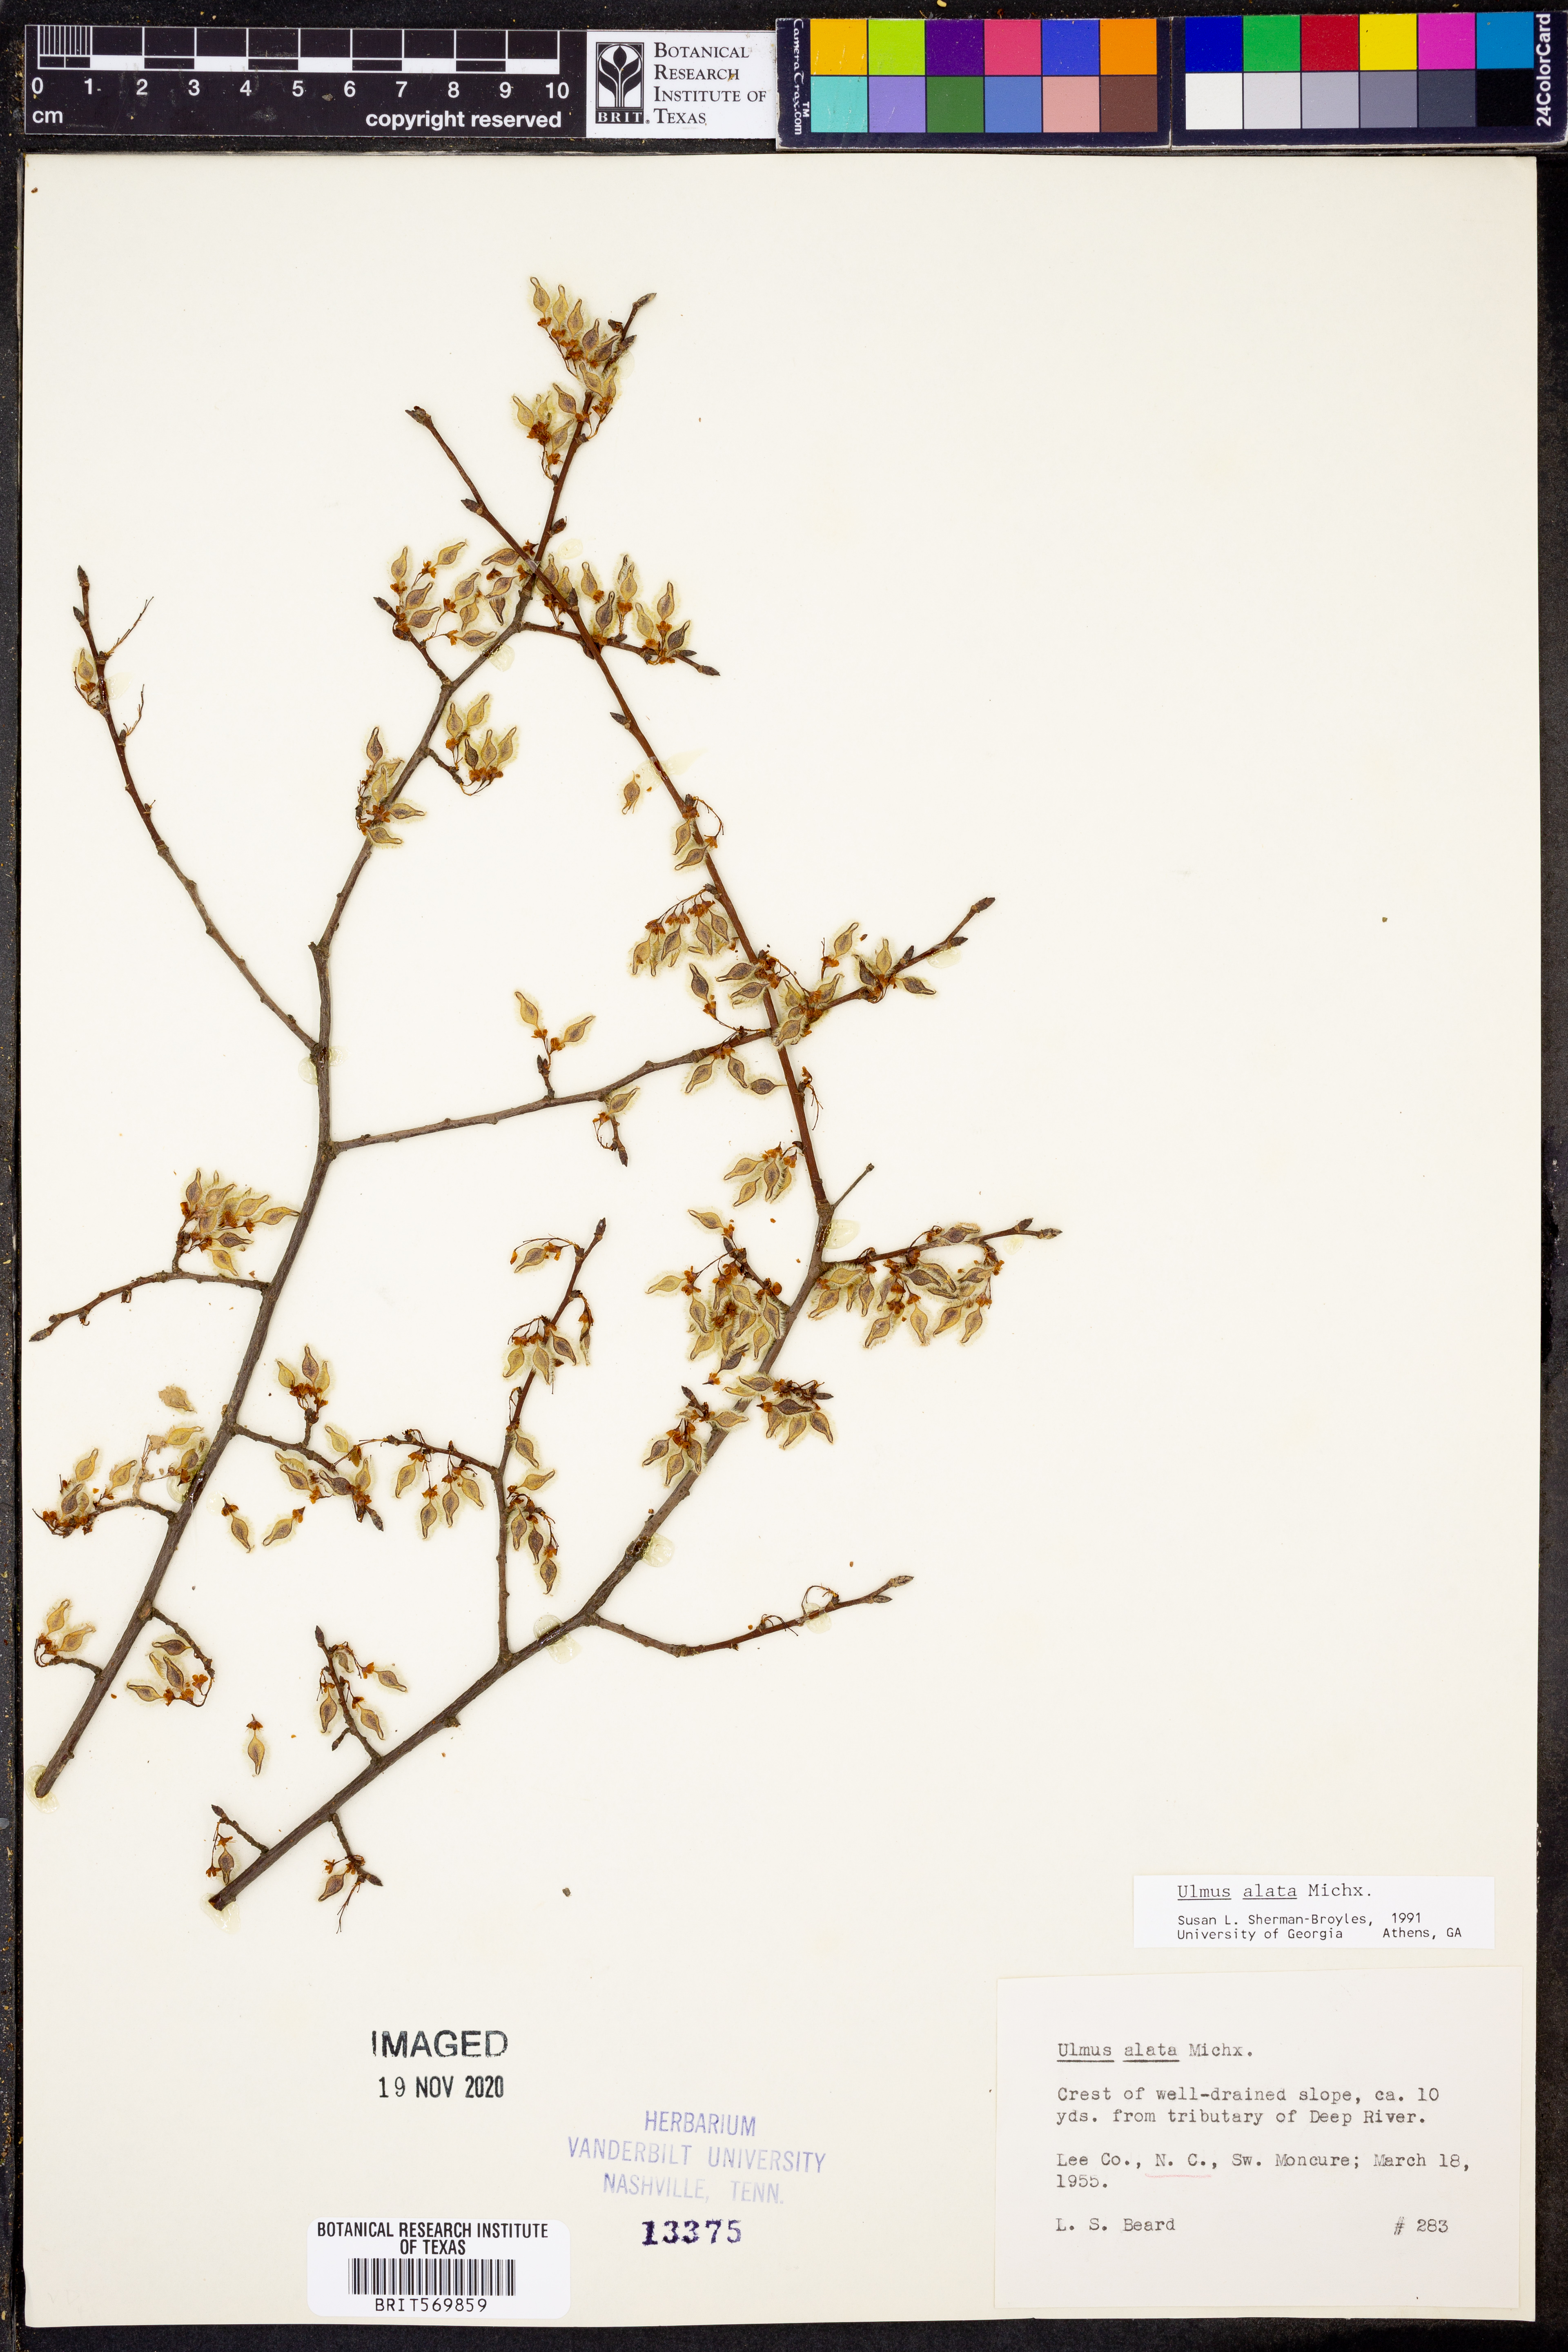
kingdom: Plantae
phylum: Tracheophyta
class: Magnoliopsida
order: Rosales
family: Ulmaceae
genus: Ulmus
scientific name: Ulmus alata
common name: Winged elm
